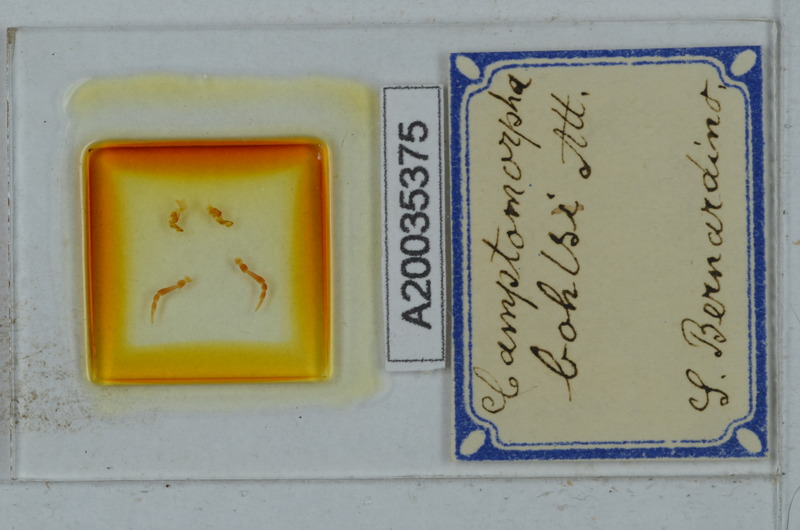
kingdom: Animalia
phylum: Arthropoda
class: Diplopoda
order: Polydesmida
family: Chelodesmidae
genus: Camptomorpha
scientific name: Camptomorpha
